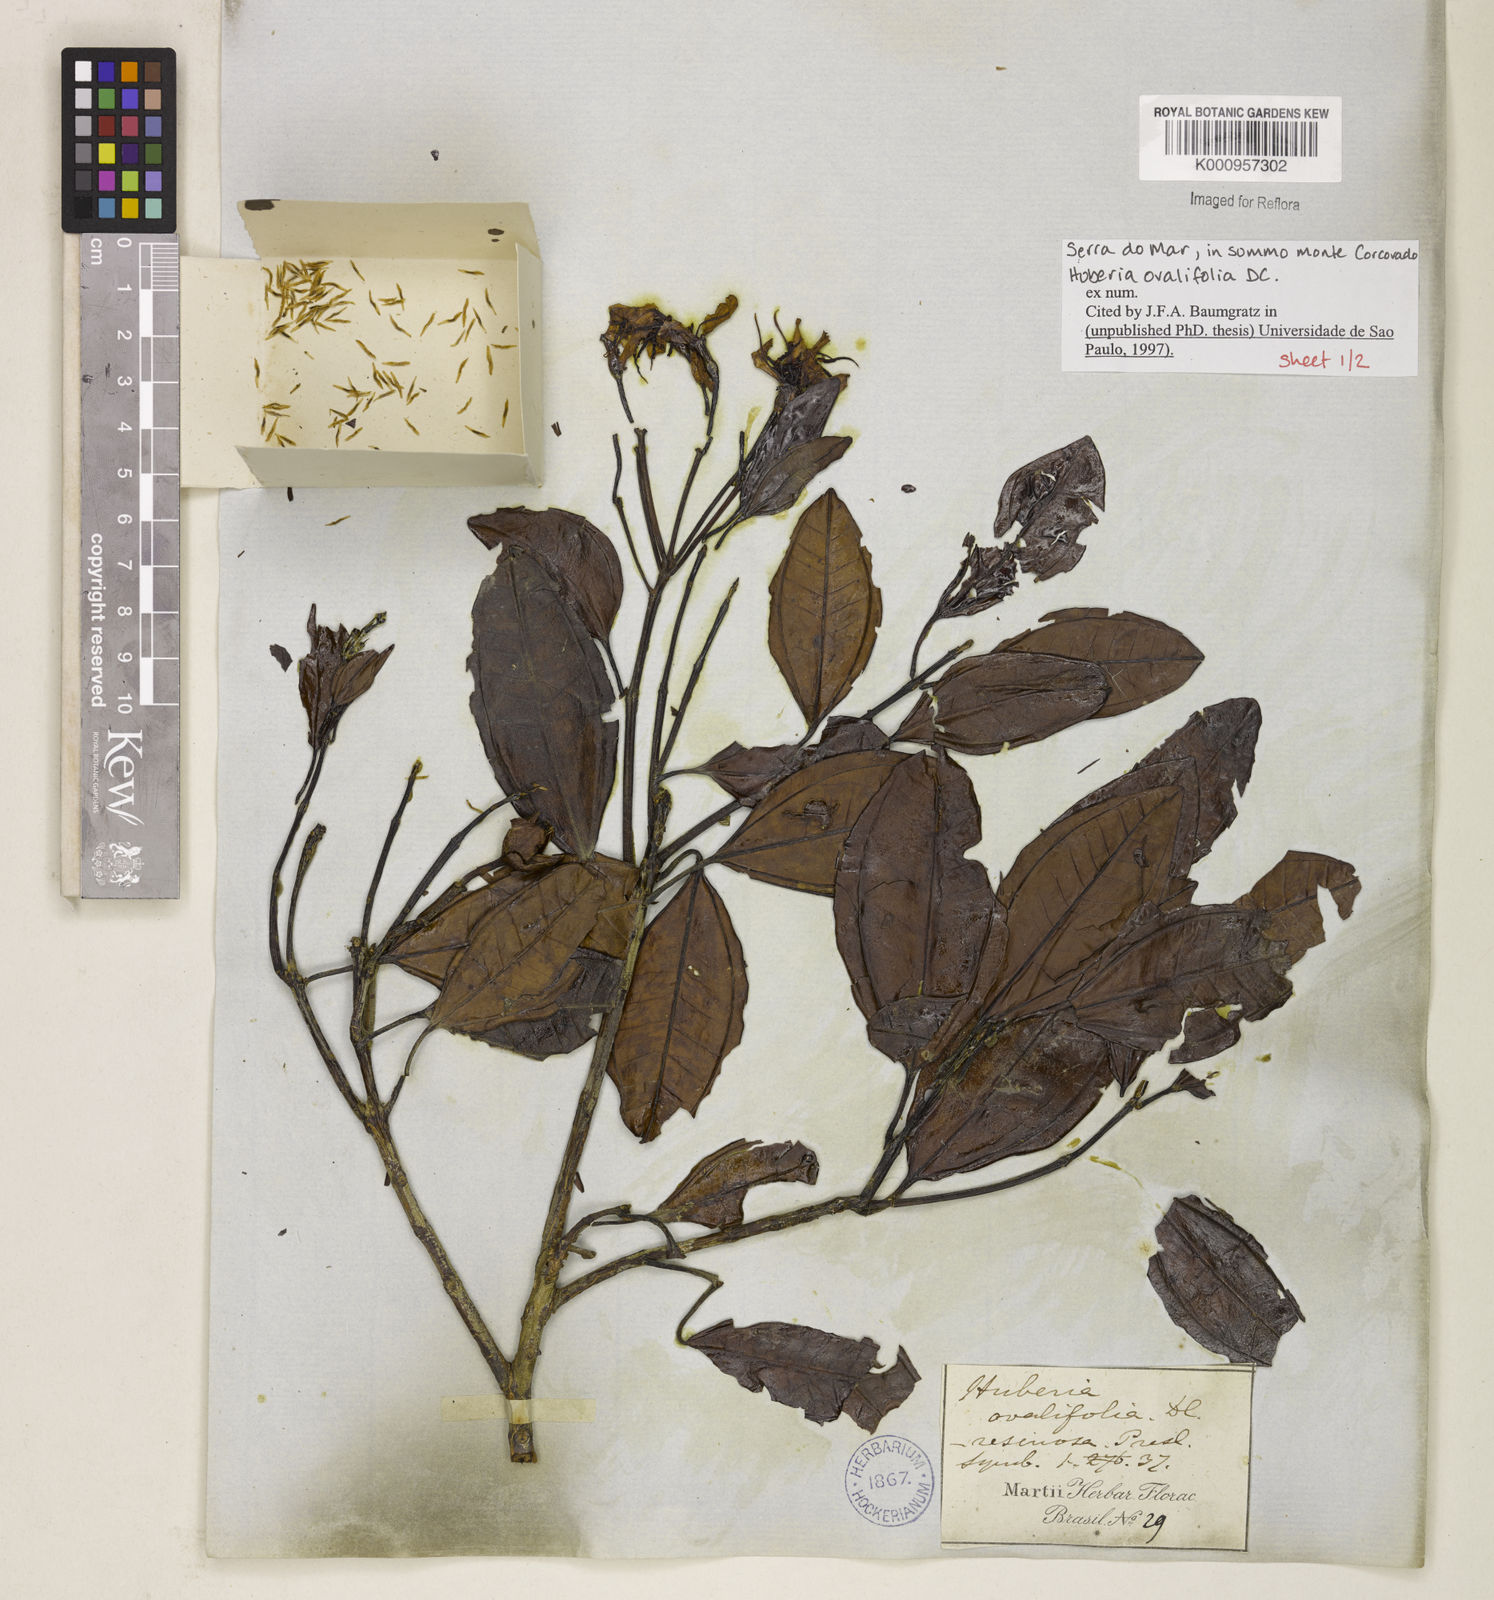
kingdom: Plantae
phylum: Tracheophyta
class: Magnoliopsida
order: Myrtales
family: Melastomataceae
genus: Huberia
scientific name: Huberia ovalifolia
